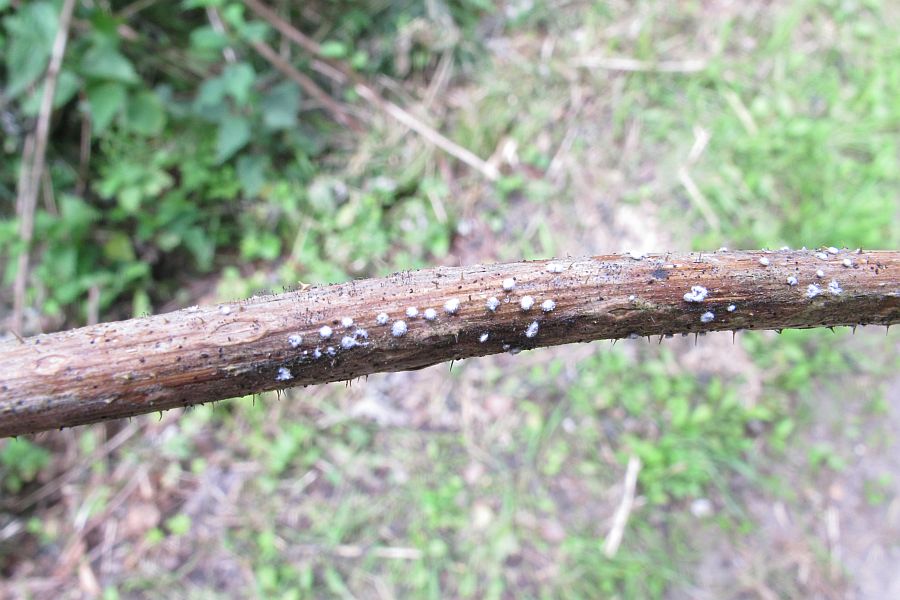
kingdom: Fungi
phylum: Basidiomycota
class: Agaricomycetes
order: Agaricales
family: Niaceae
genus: Lachnella
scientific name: Lachnella alboviolascens
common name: grå frynserede
